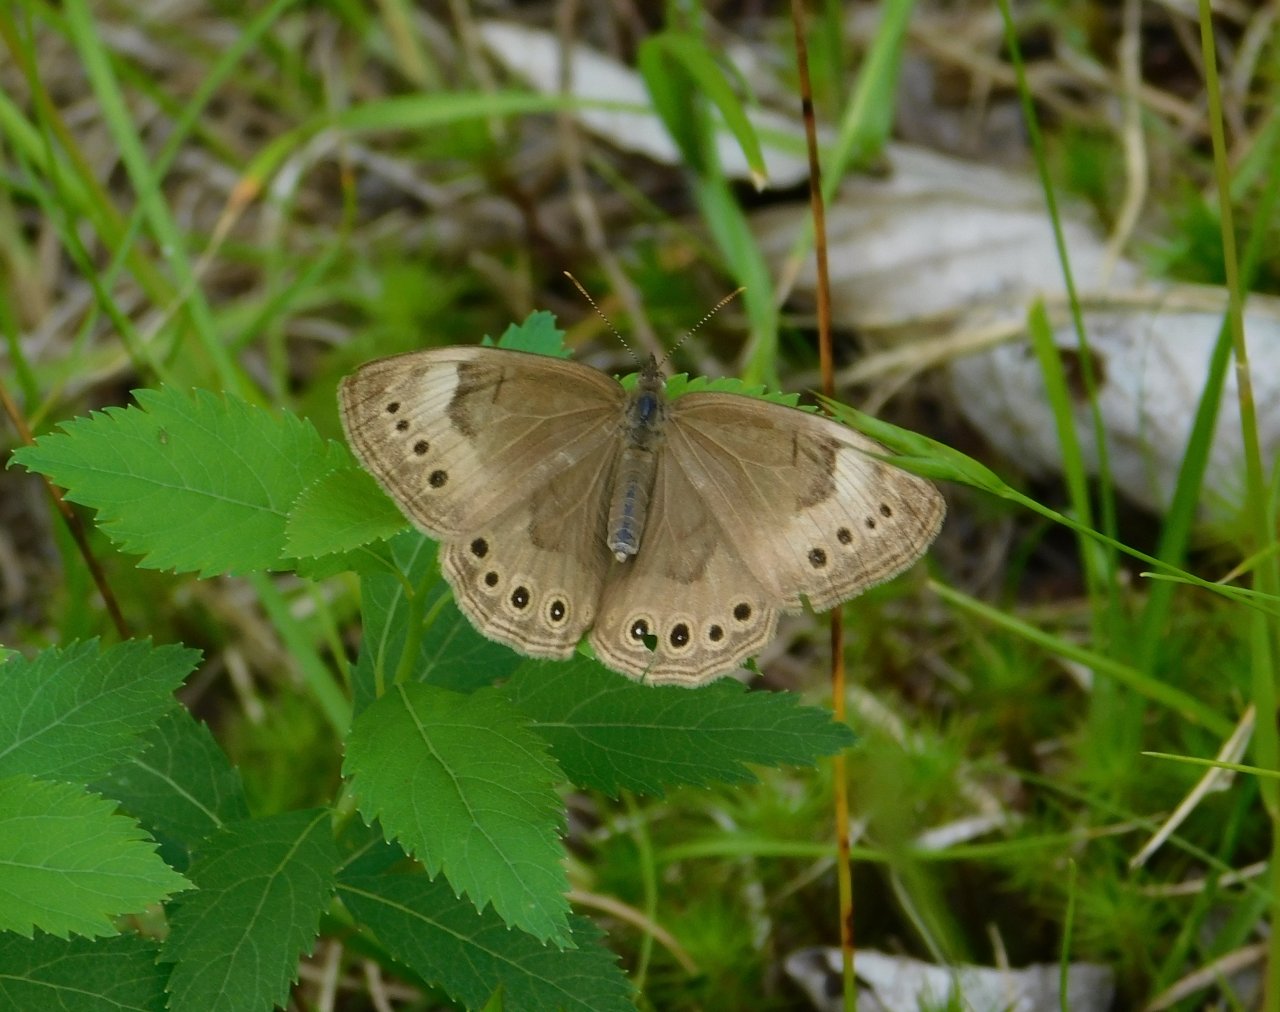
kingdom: Animalia
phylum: Arthropoda
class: Insecta
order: Lepidoptera
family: Nymphalidae
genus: Lethe
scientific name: Lethe eurydice
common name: Eyed Brown
